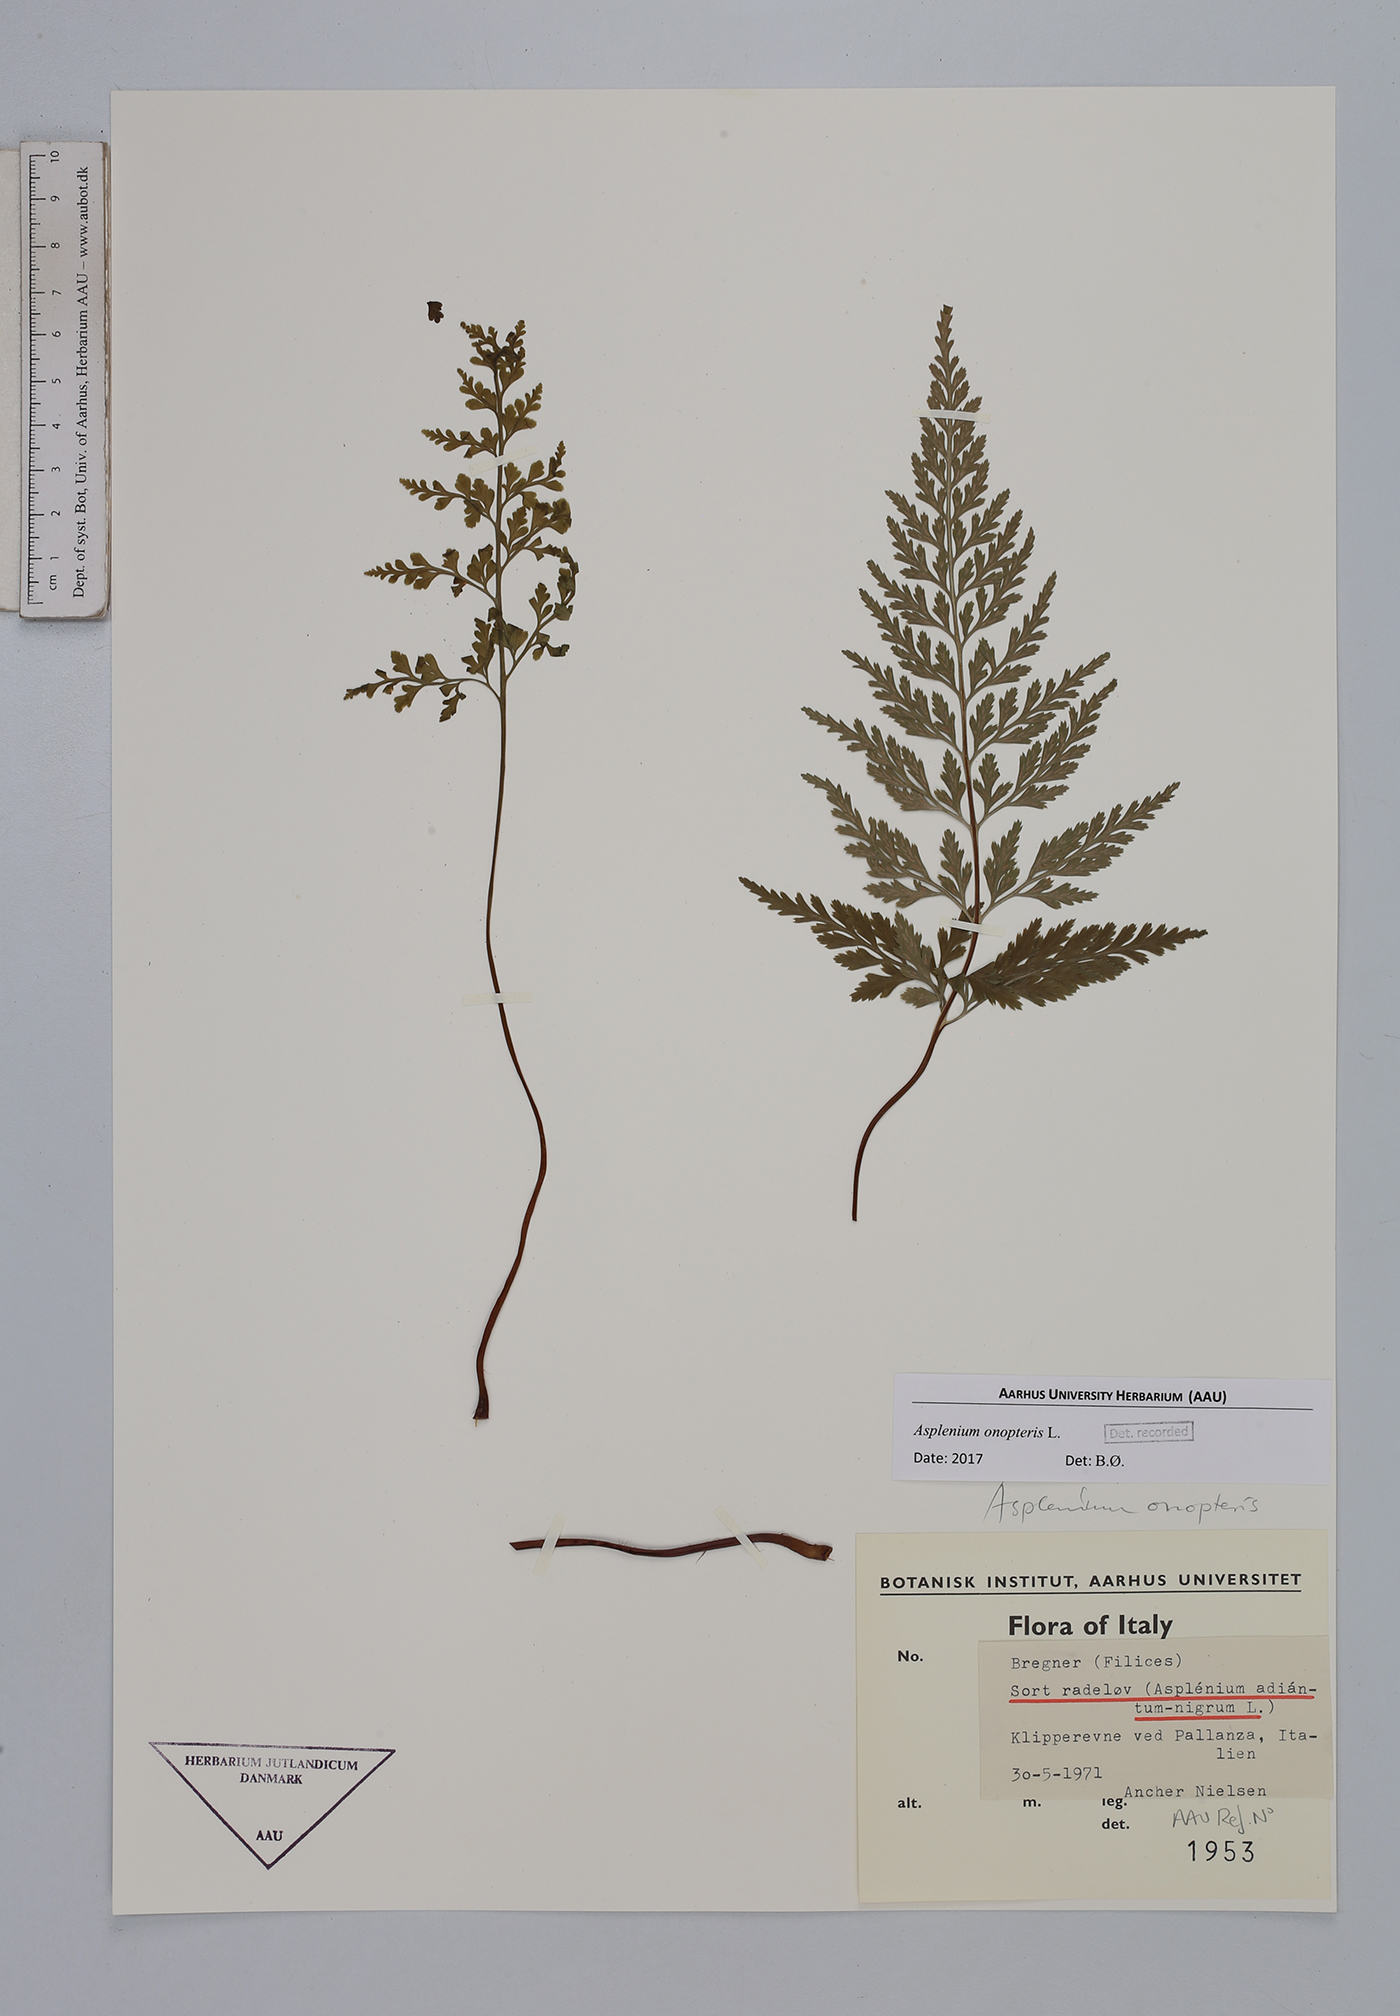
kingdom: Plantae
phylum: Tracheophyta
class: Polypodiopsida
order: Polypodiales
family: Aspleniaceae
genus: Asplenium
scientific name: Asplenium onopteris
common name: Irish spleenwort
